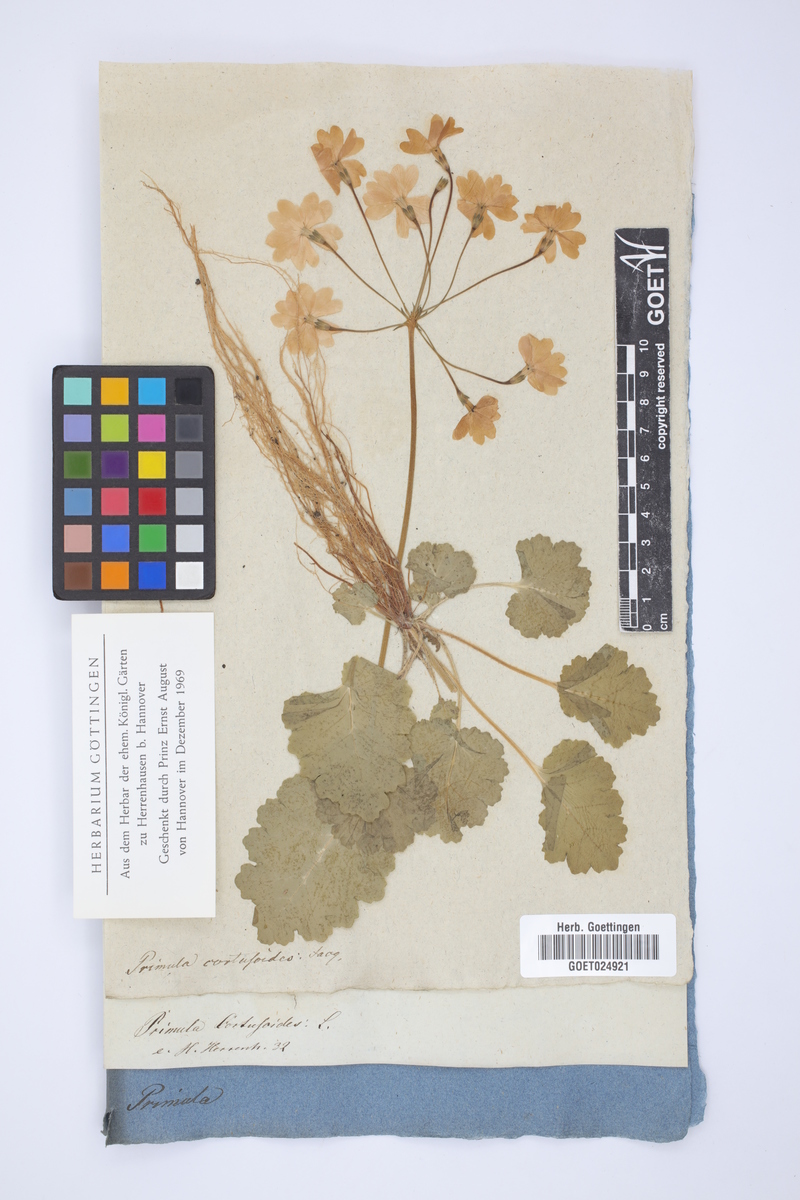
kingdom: Plantae
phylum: Tracheophyta
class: Magnoliopsida
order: Ericales
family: Primulaceae
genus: Primula
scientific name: Primula cortusoides
